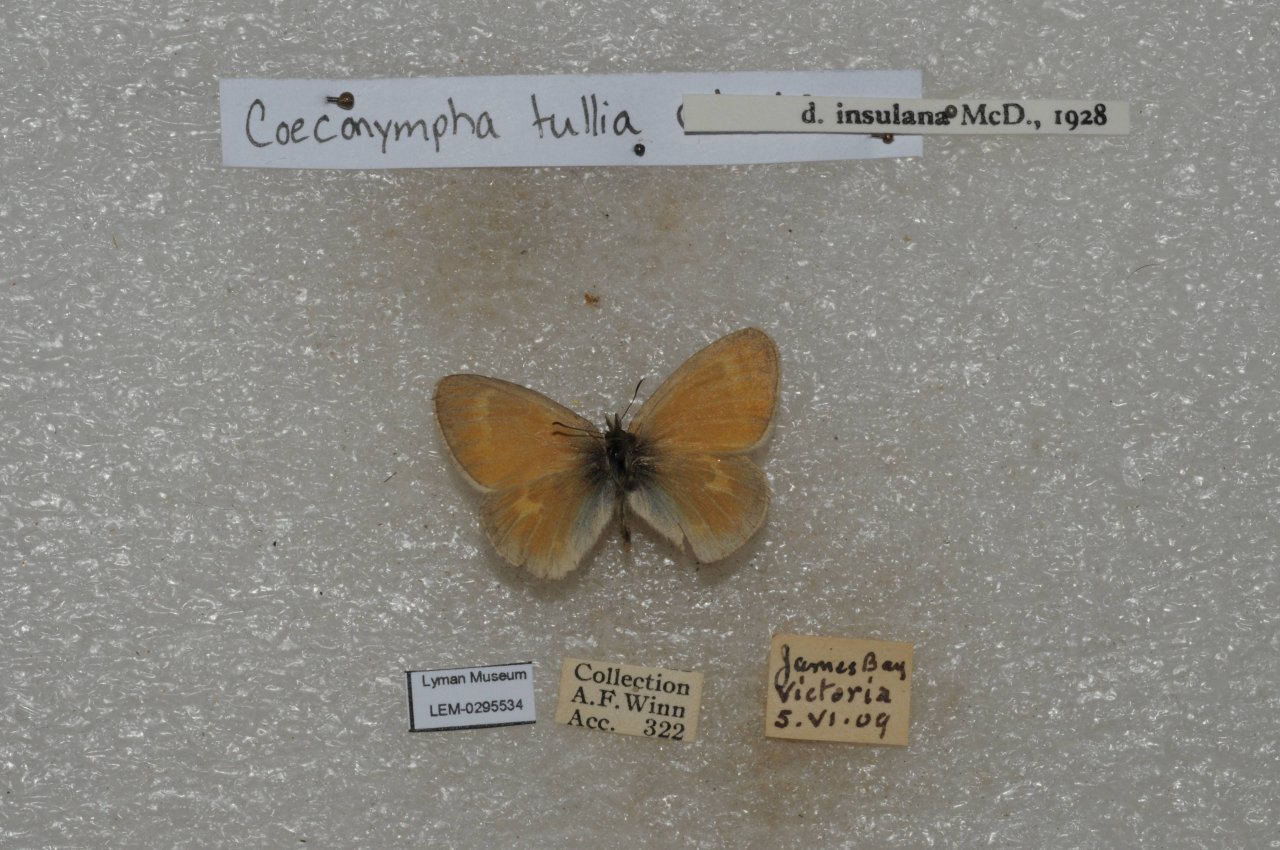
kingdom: Animalia
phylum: Arthropoda
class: Insecta
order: Lepidoptera
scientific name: Lepidoptera
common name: Butterflies
